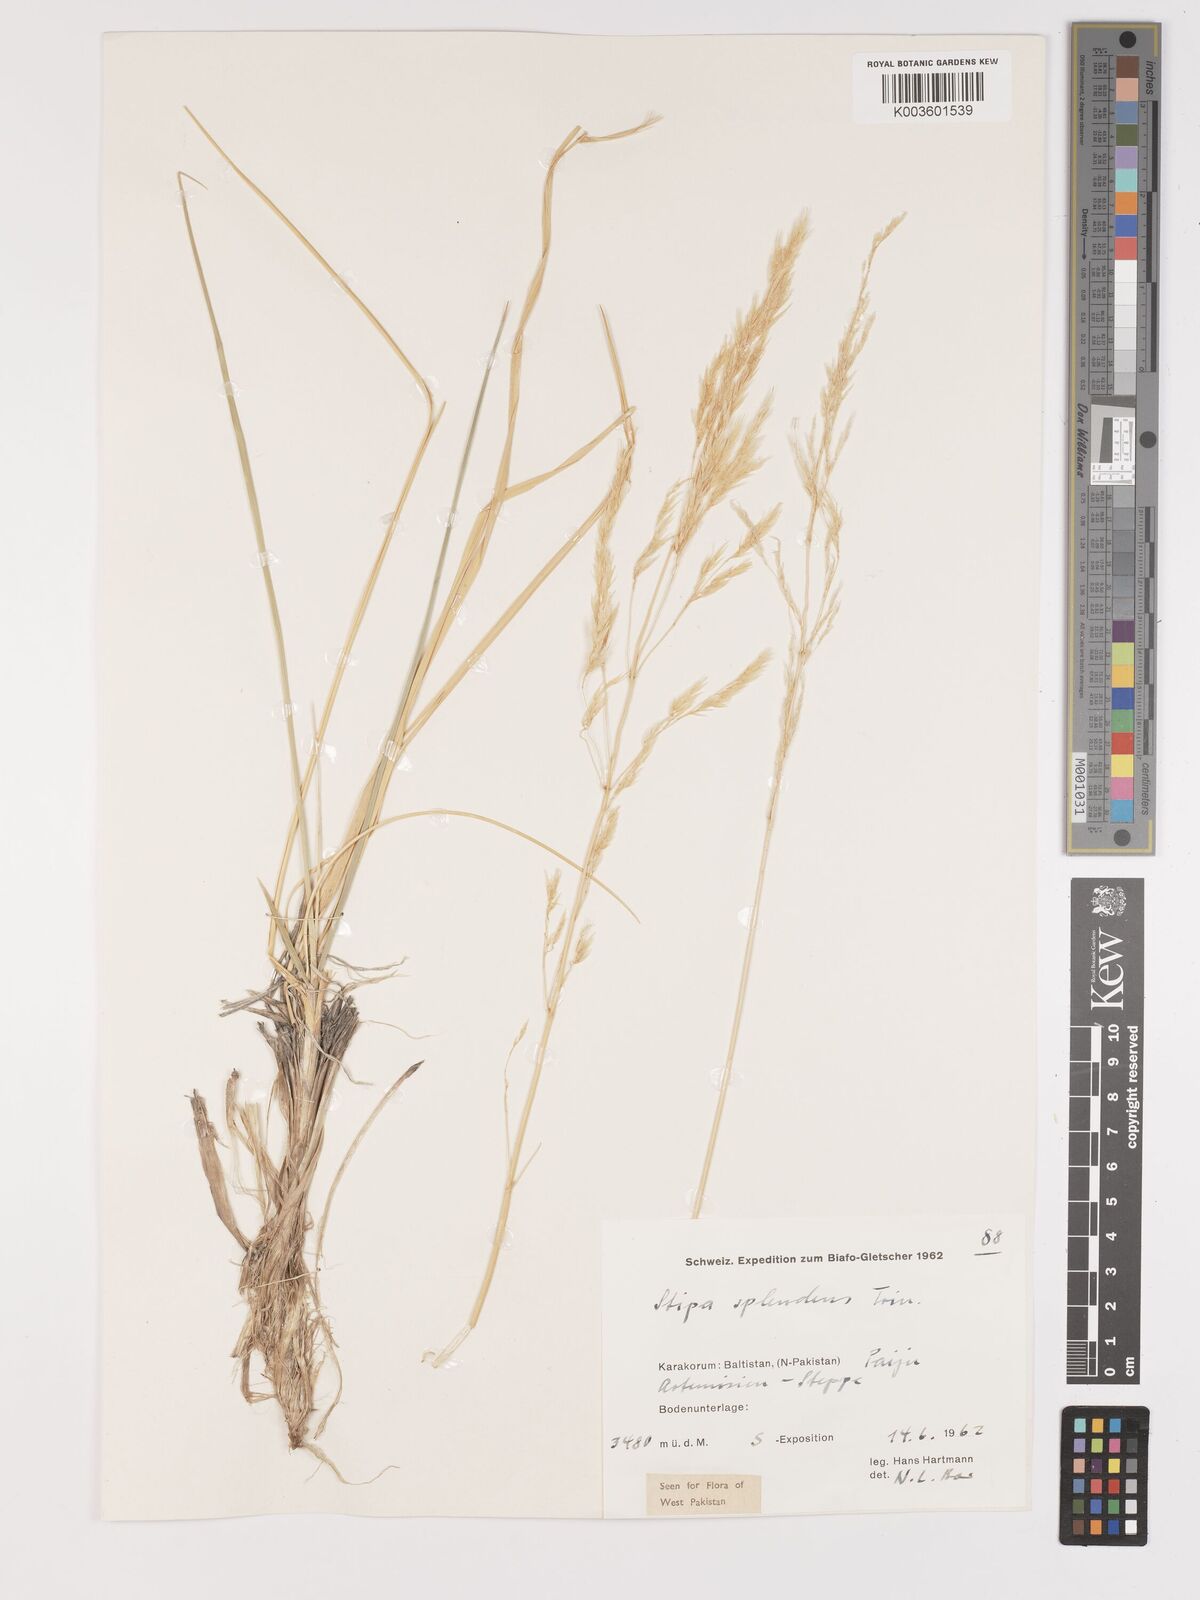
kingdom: Plantae
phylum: Tracheophyta
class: Liliopsida
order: Poales
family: Poaceae
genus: Neotrinia
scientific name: Neotrinia splendens
